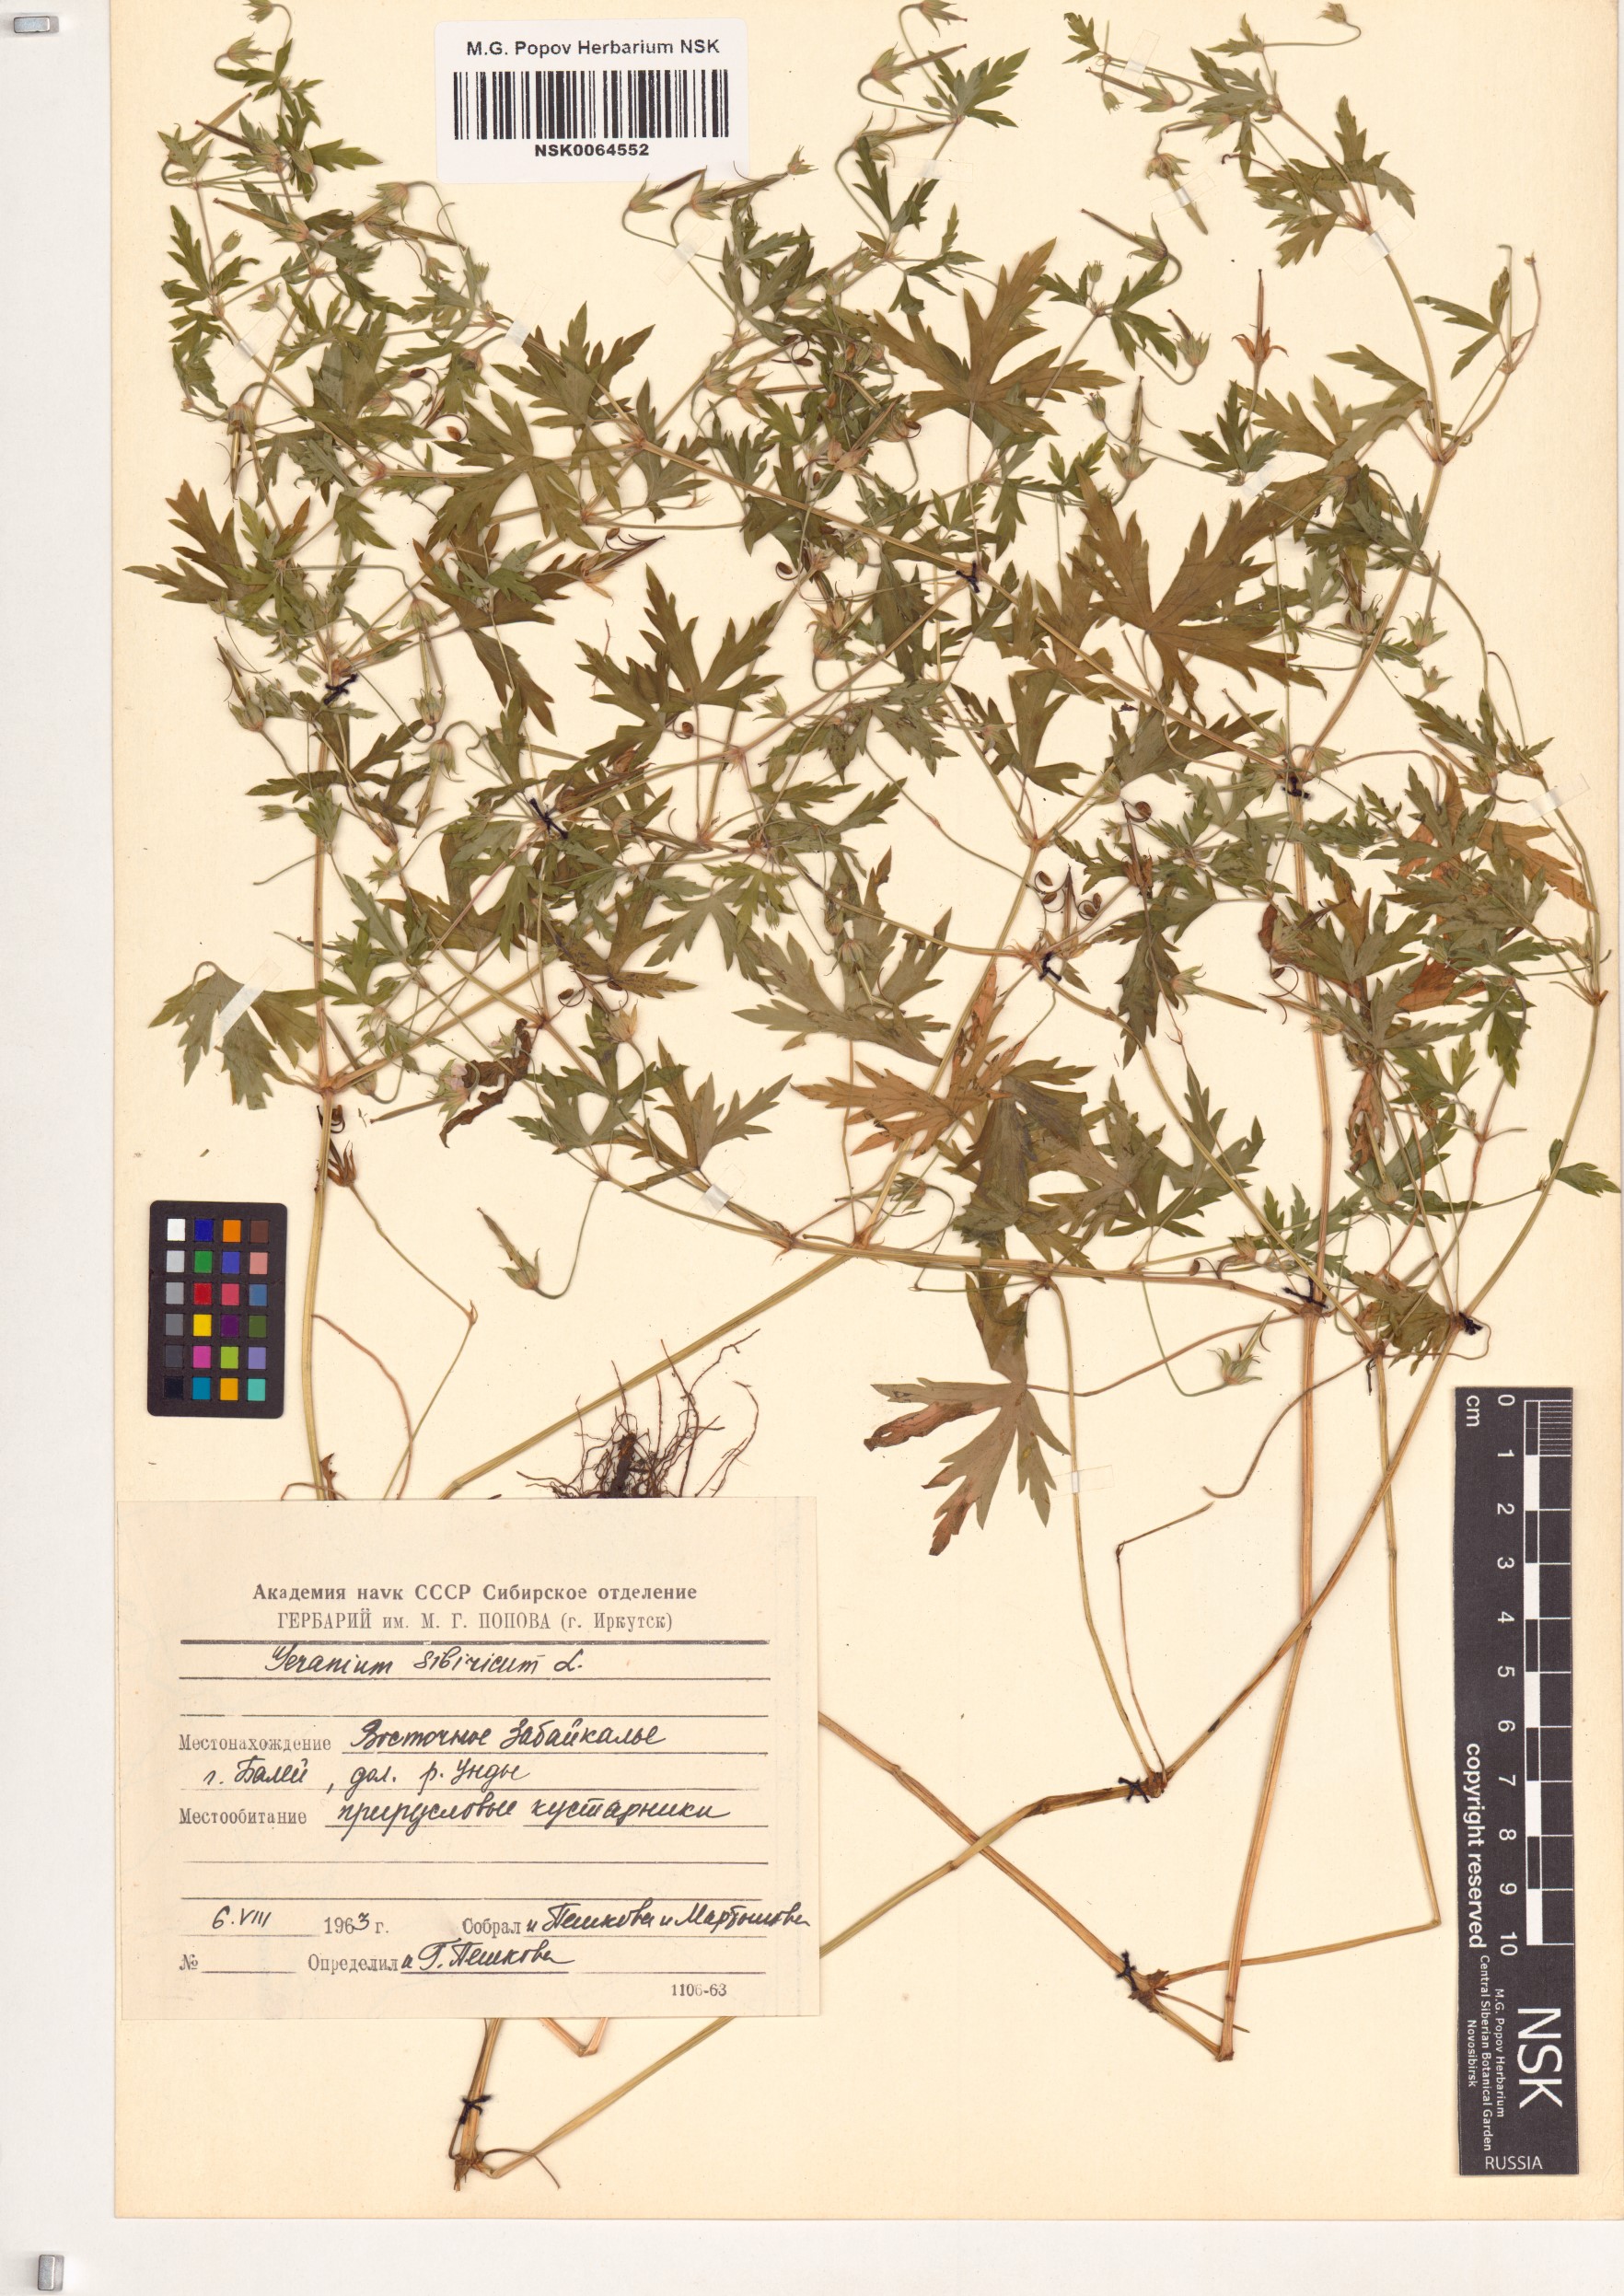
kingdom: Plantae
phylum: Tracheophyta
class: Magnoliopsida
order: Geraniales
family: Geraniaceae
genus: Geranium
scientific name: Geranium sibiricum
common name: Siberian crane's-bill
